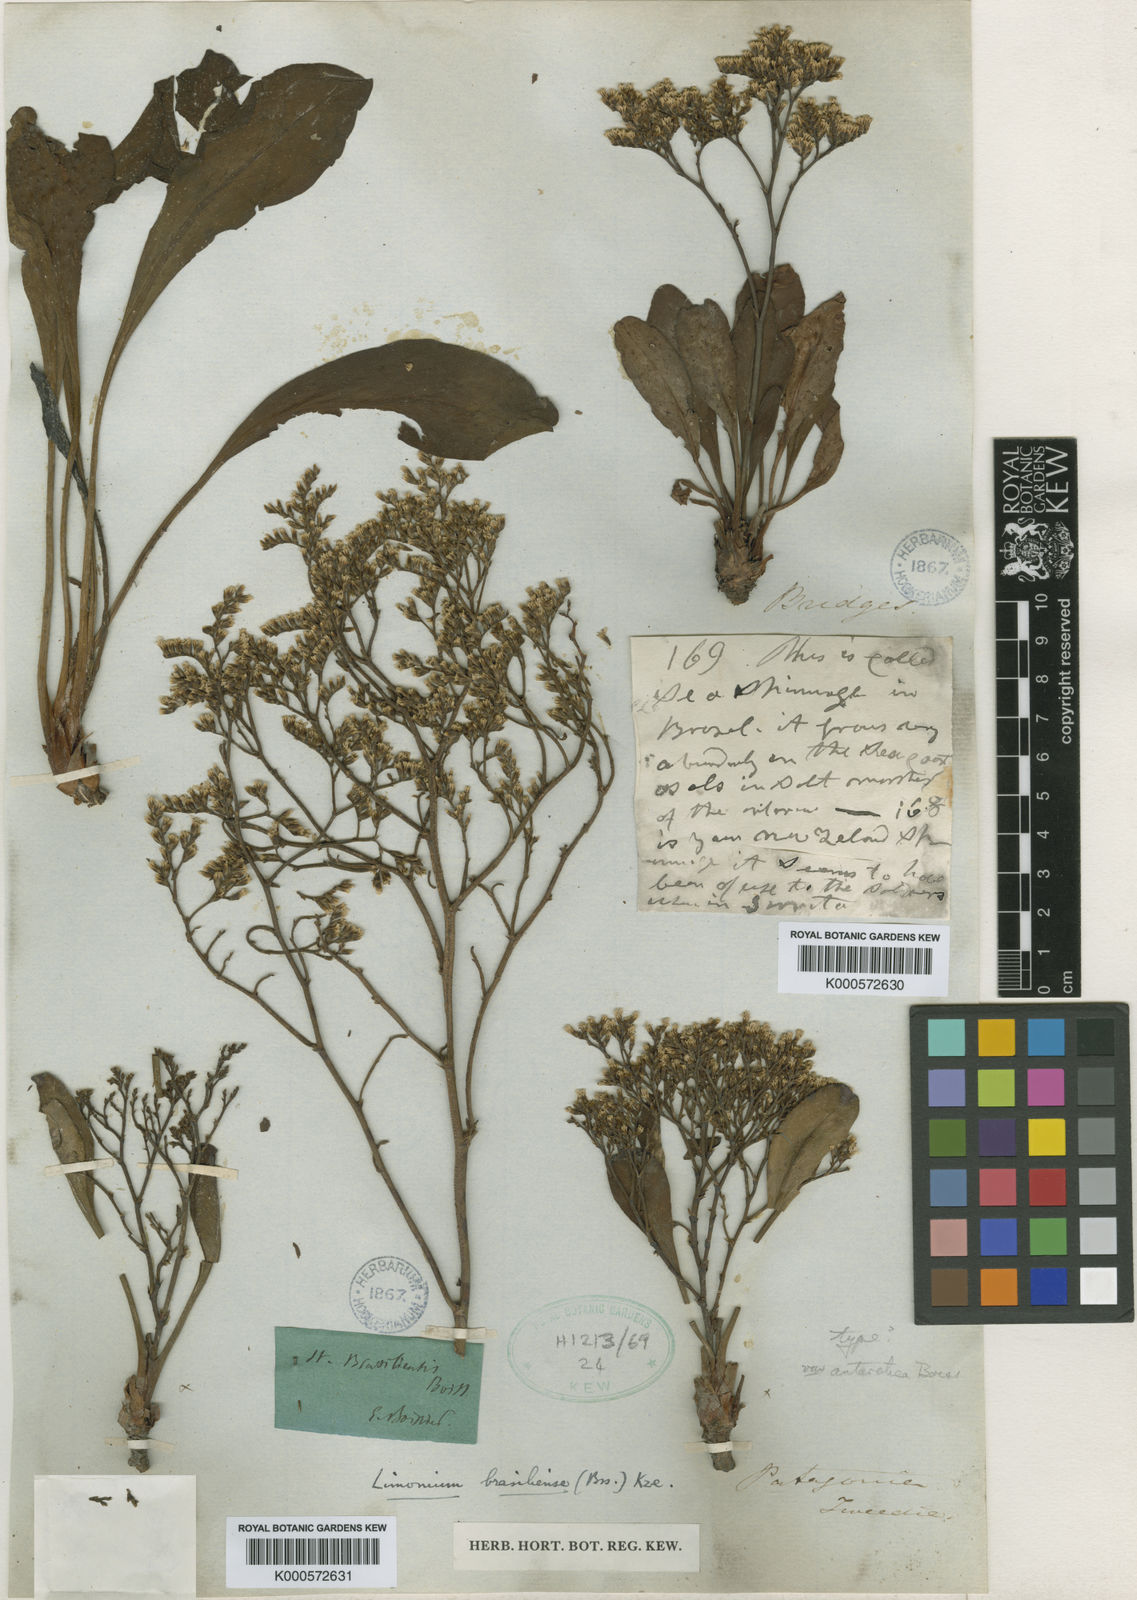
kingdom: Plantae
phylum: Tracheophyta
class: Magnoliopsida
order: Caryophyllales
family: Plumbaginaceae
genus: Limonium
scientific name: Limonium brasiliense
